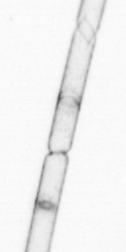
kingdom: Chromista
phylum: Ochrophyta
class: Bacillariophyceae
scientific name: Bacillariophyceae
